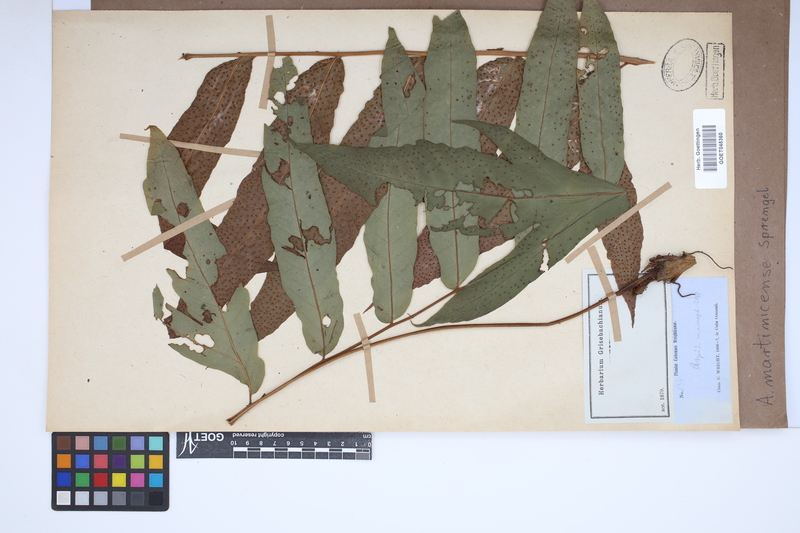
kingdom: Plantae
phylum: Tracheophyta
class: Polypodiopsida
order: Polypodiales
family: Tectariaceae
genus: Tectaria
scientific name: Tectaria incisa
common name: Incised halberd fern
